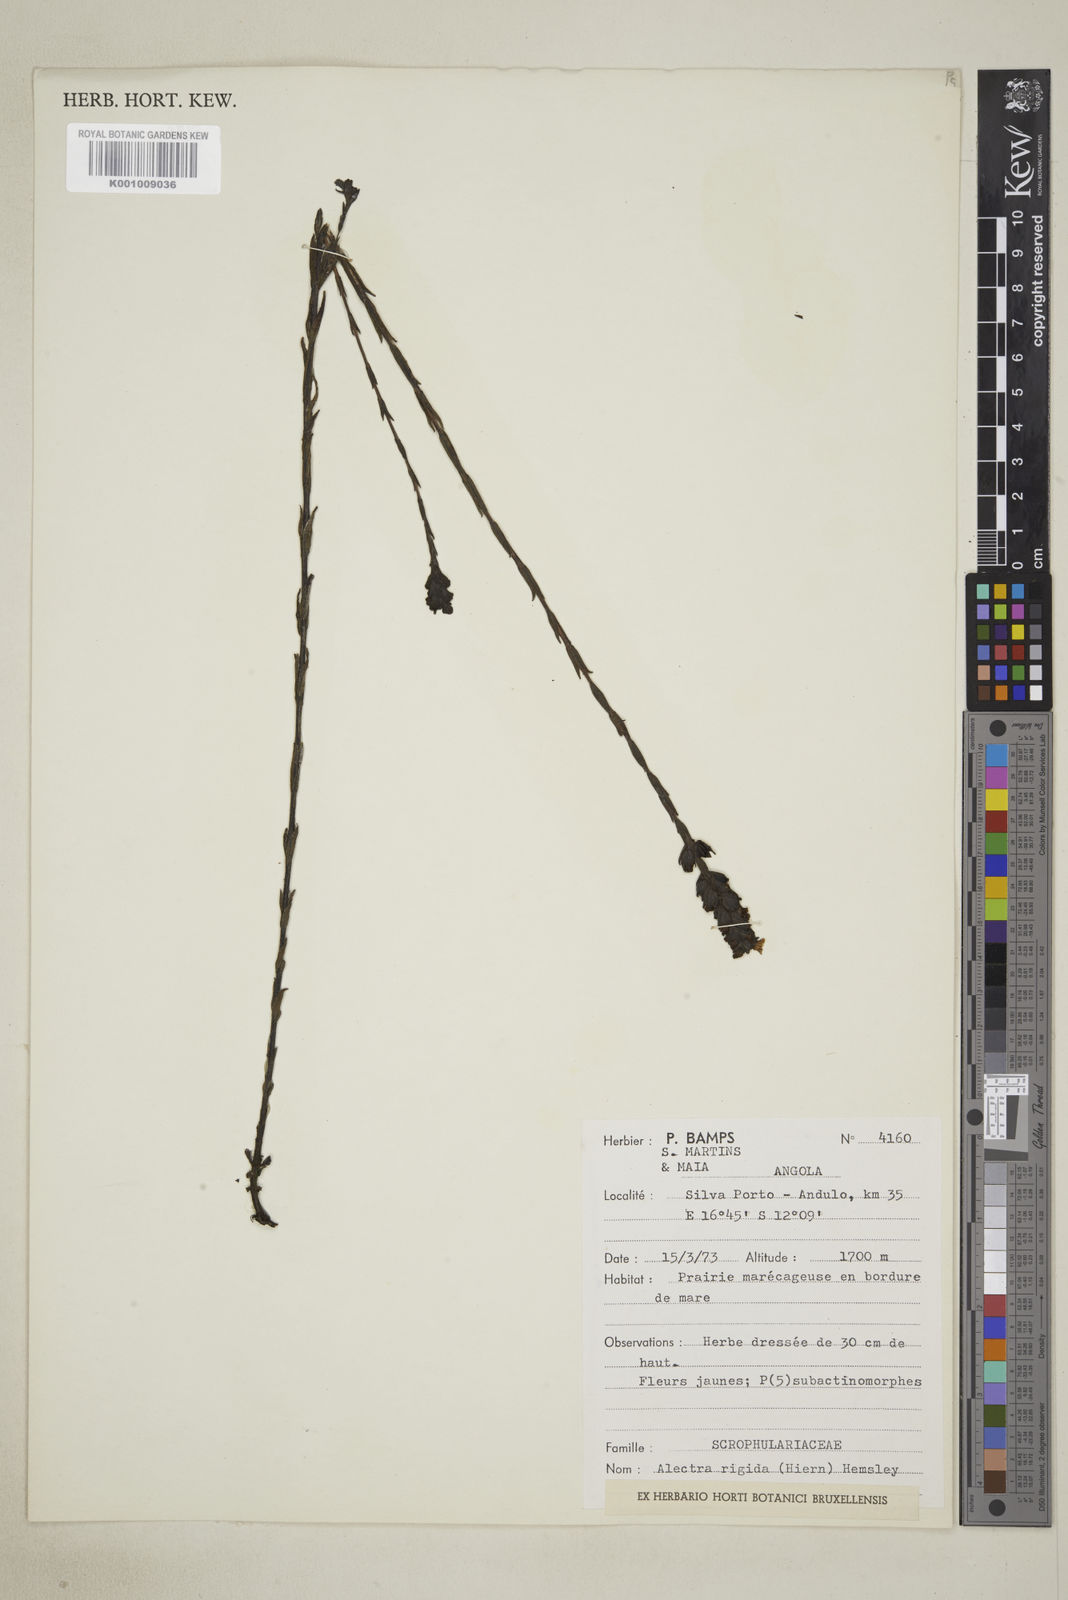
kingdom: Plantae
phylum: Tracheophyta
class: Magnoliopsida
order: Lamiales
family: Orobanchaceae
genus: Alectra
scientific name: Alectra rigida
